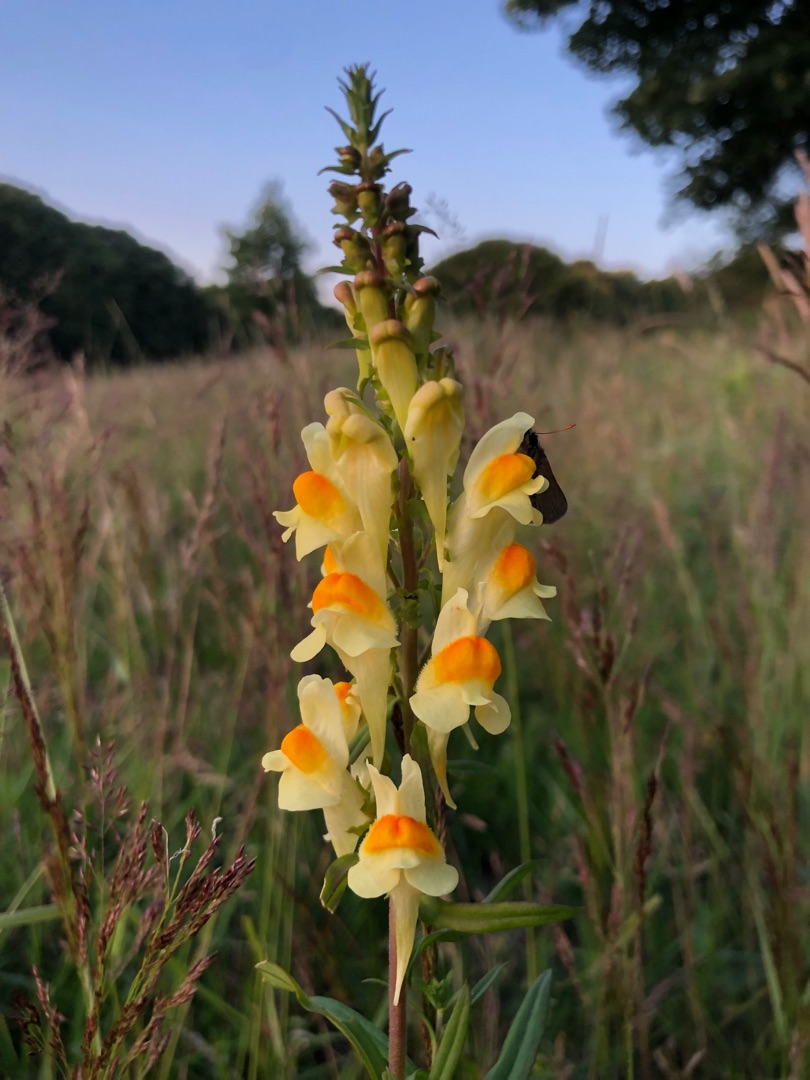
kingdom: Plantae
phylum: Tracheophyta
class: Magnoliopsida
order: Lamiales
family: Plantaginaceae
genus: Linaria
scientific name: Linaria vulgaris
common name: Almindelig torskemund
